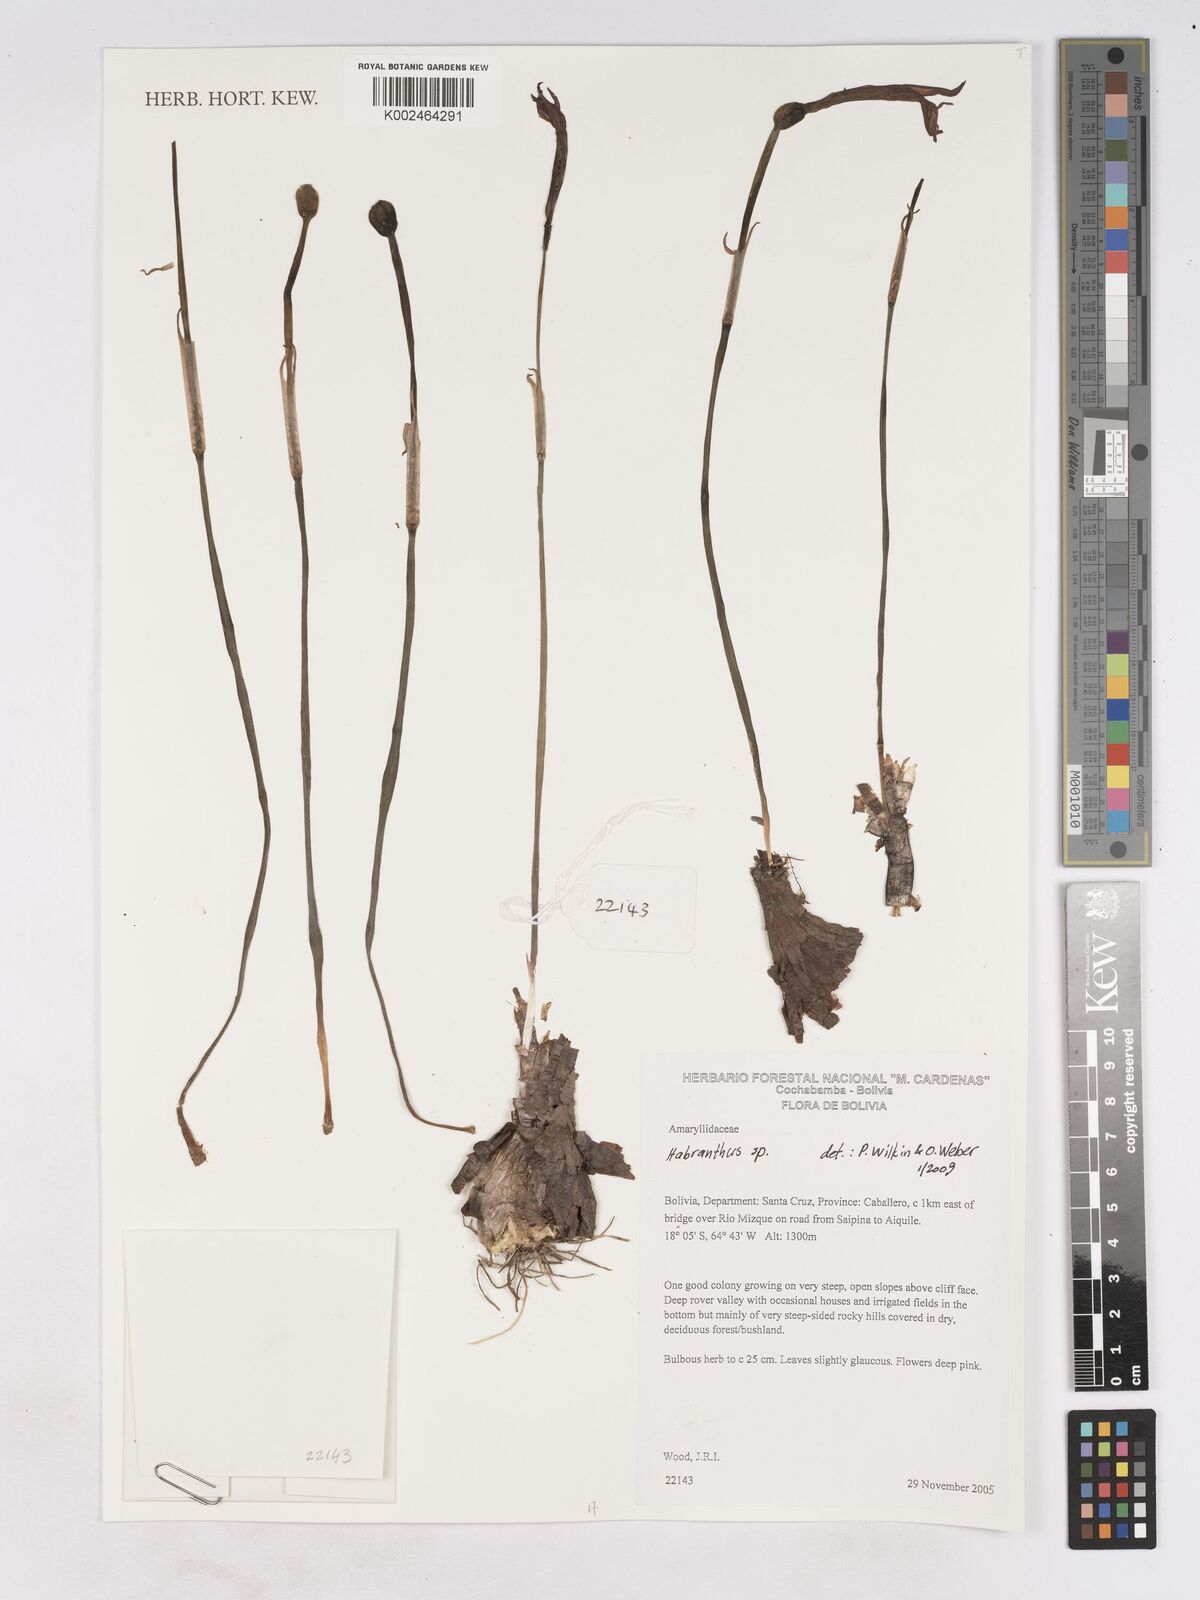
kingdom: Plantae
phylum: Tracheophyta
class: Liliopsida
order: Asparagales
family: Amaryllidaceae
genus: Zephyranthes
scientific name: Zephyranthes
